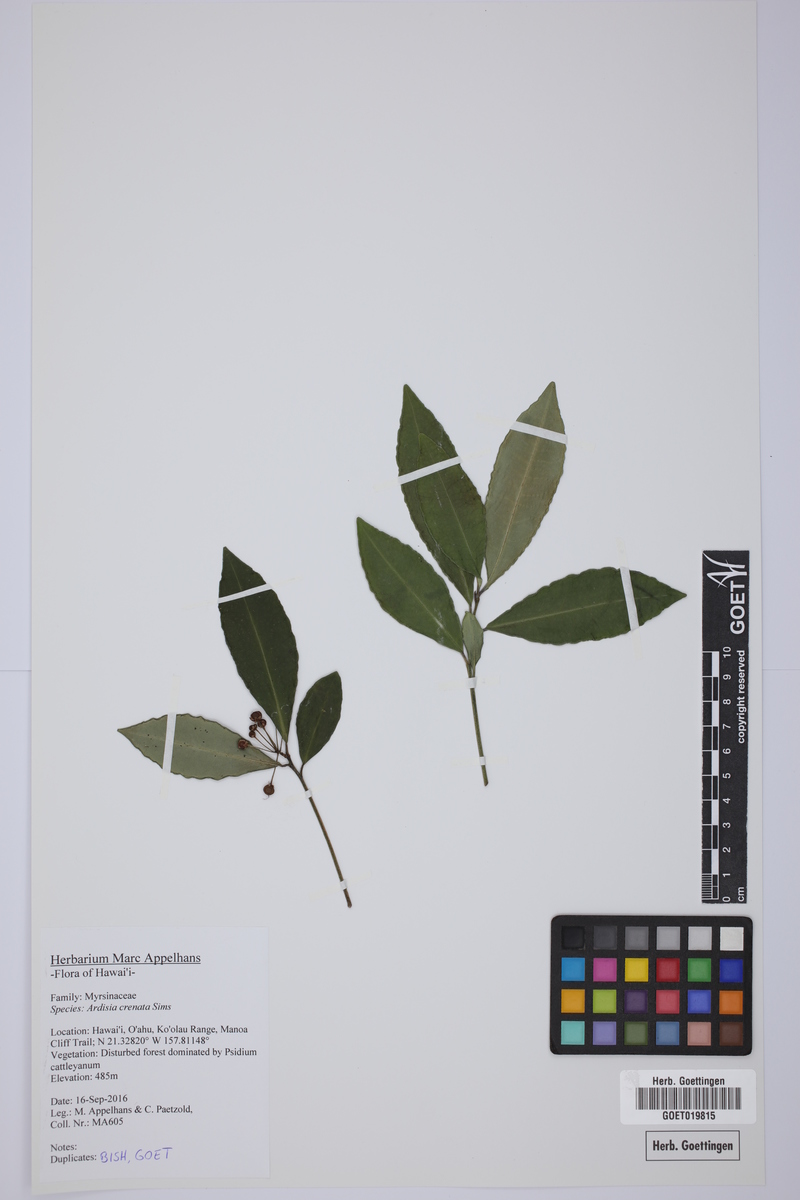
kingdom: Plantae
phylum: Tracheophyta
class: Magnoliopsida
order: Ericales
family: Primulaceae
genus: Ardisia
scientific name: Ardisia crenata
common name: Hen's eyes
